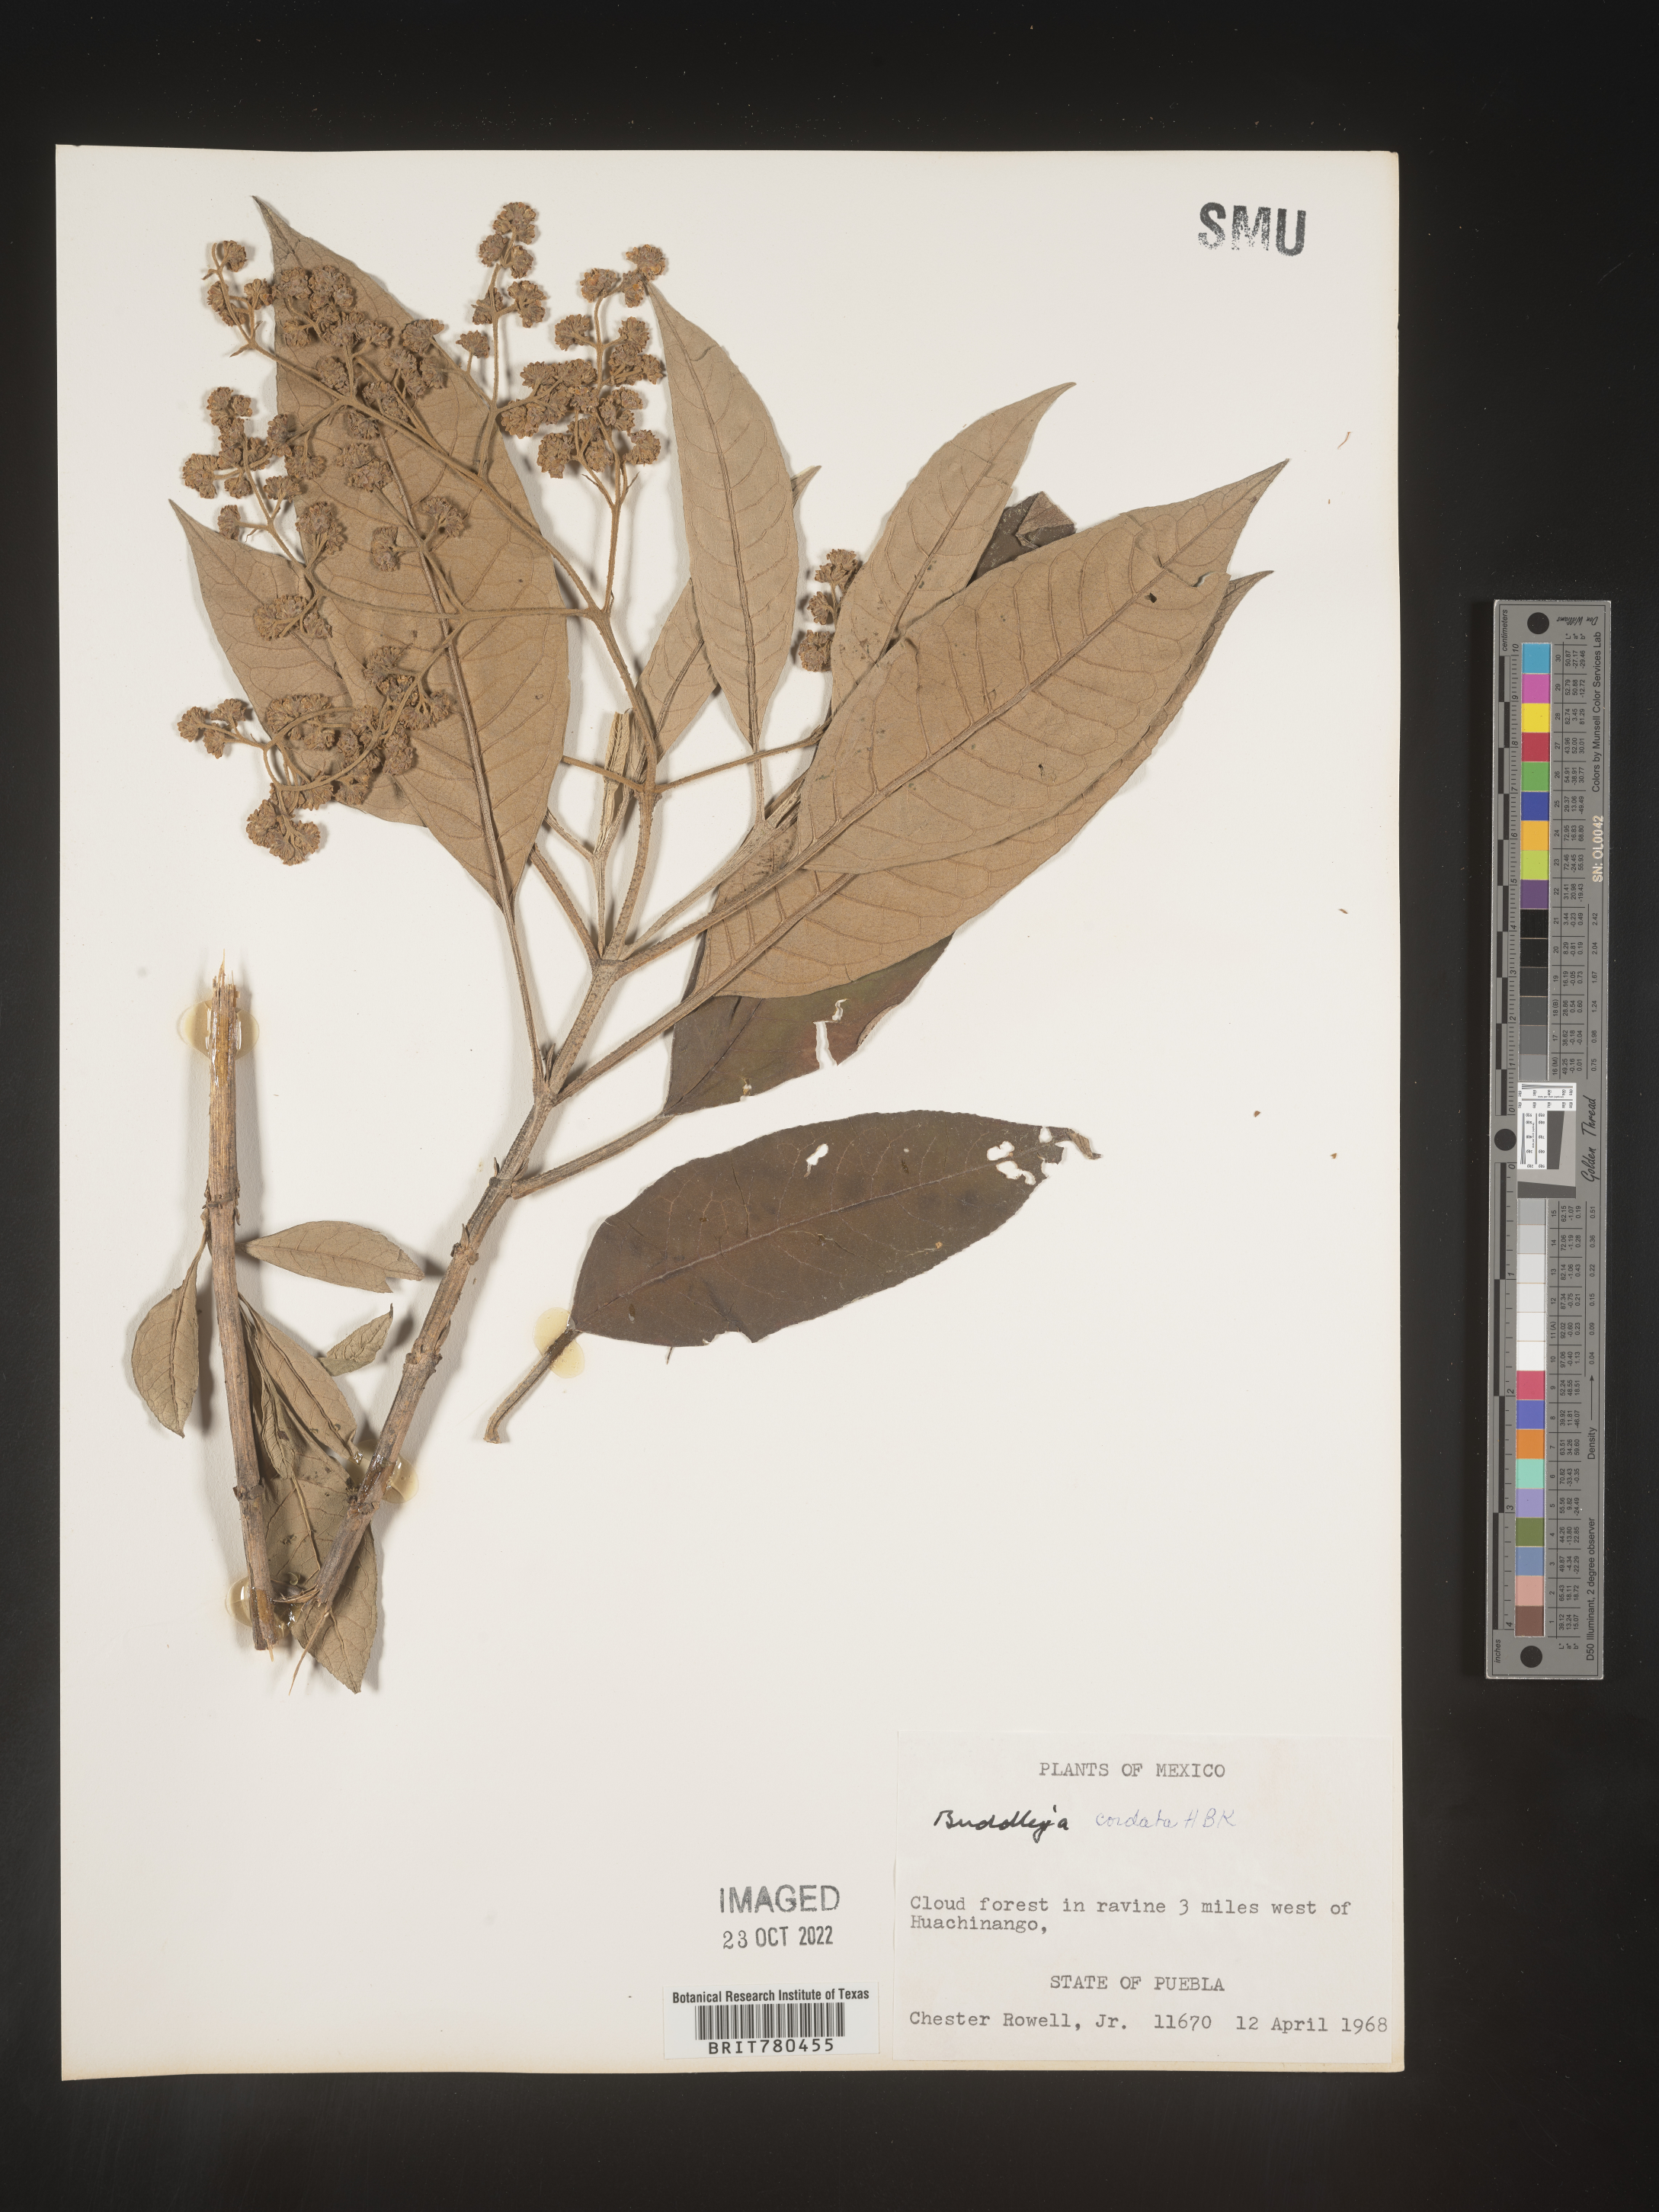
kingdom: Plantae
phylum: Tracheophyta
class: Magnoliopsida
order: Lamiales
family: Scrophulariaceae
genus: Buddleja
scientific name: Buddleja
